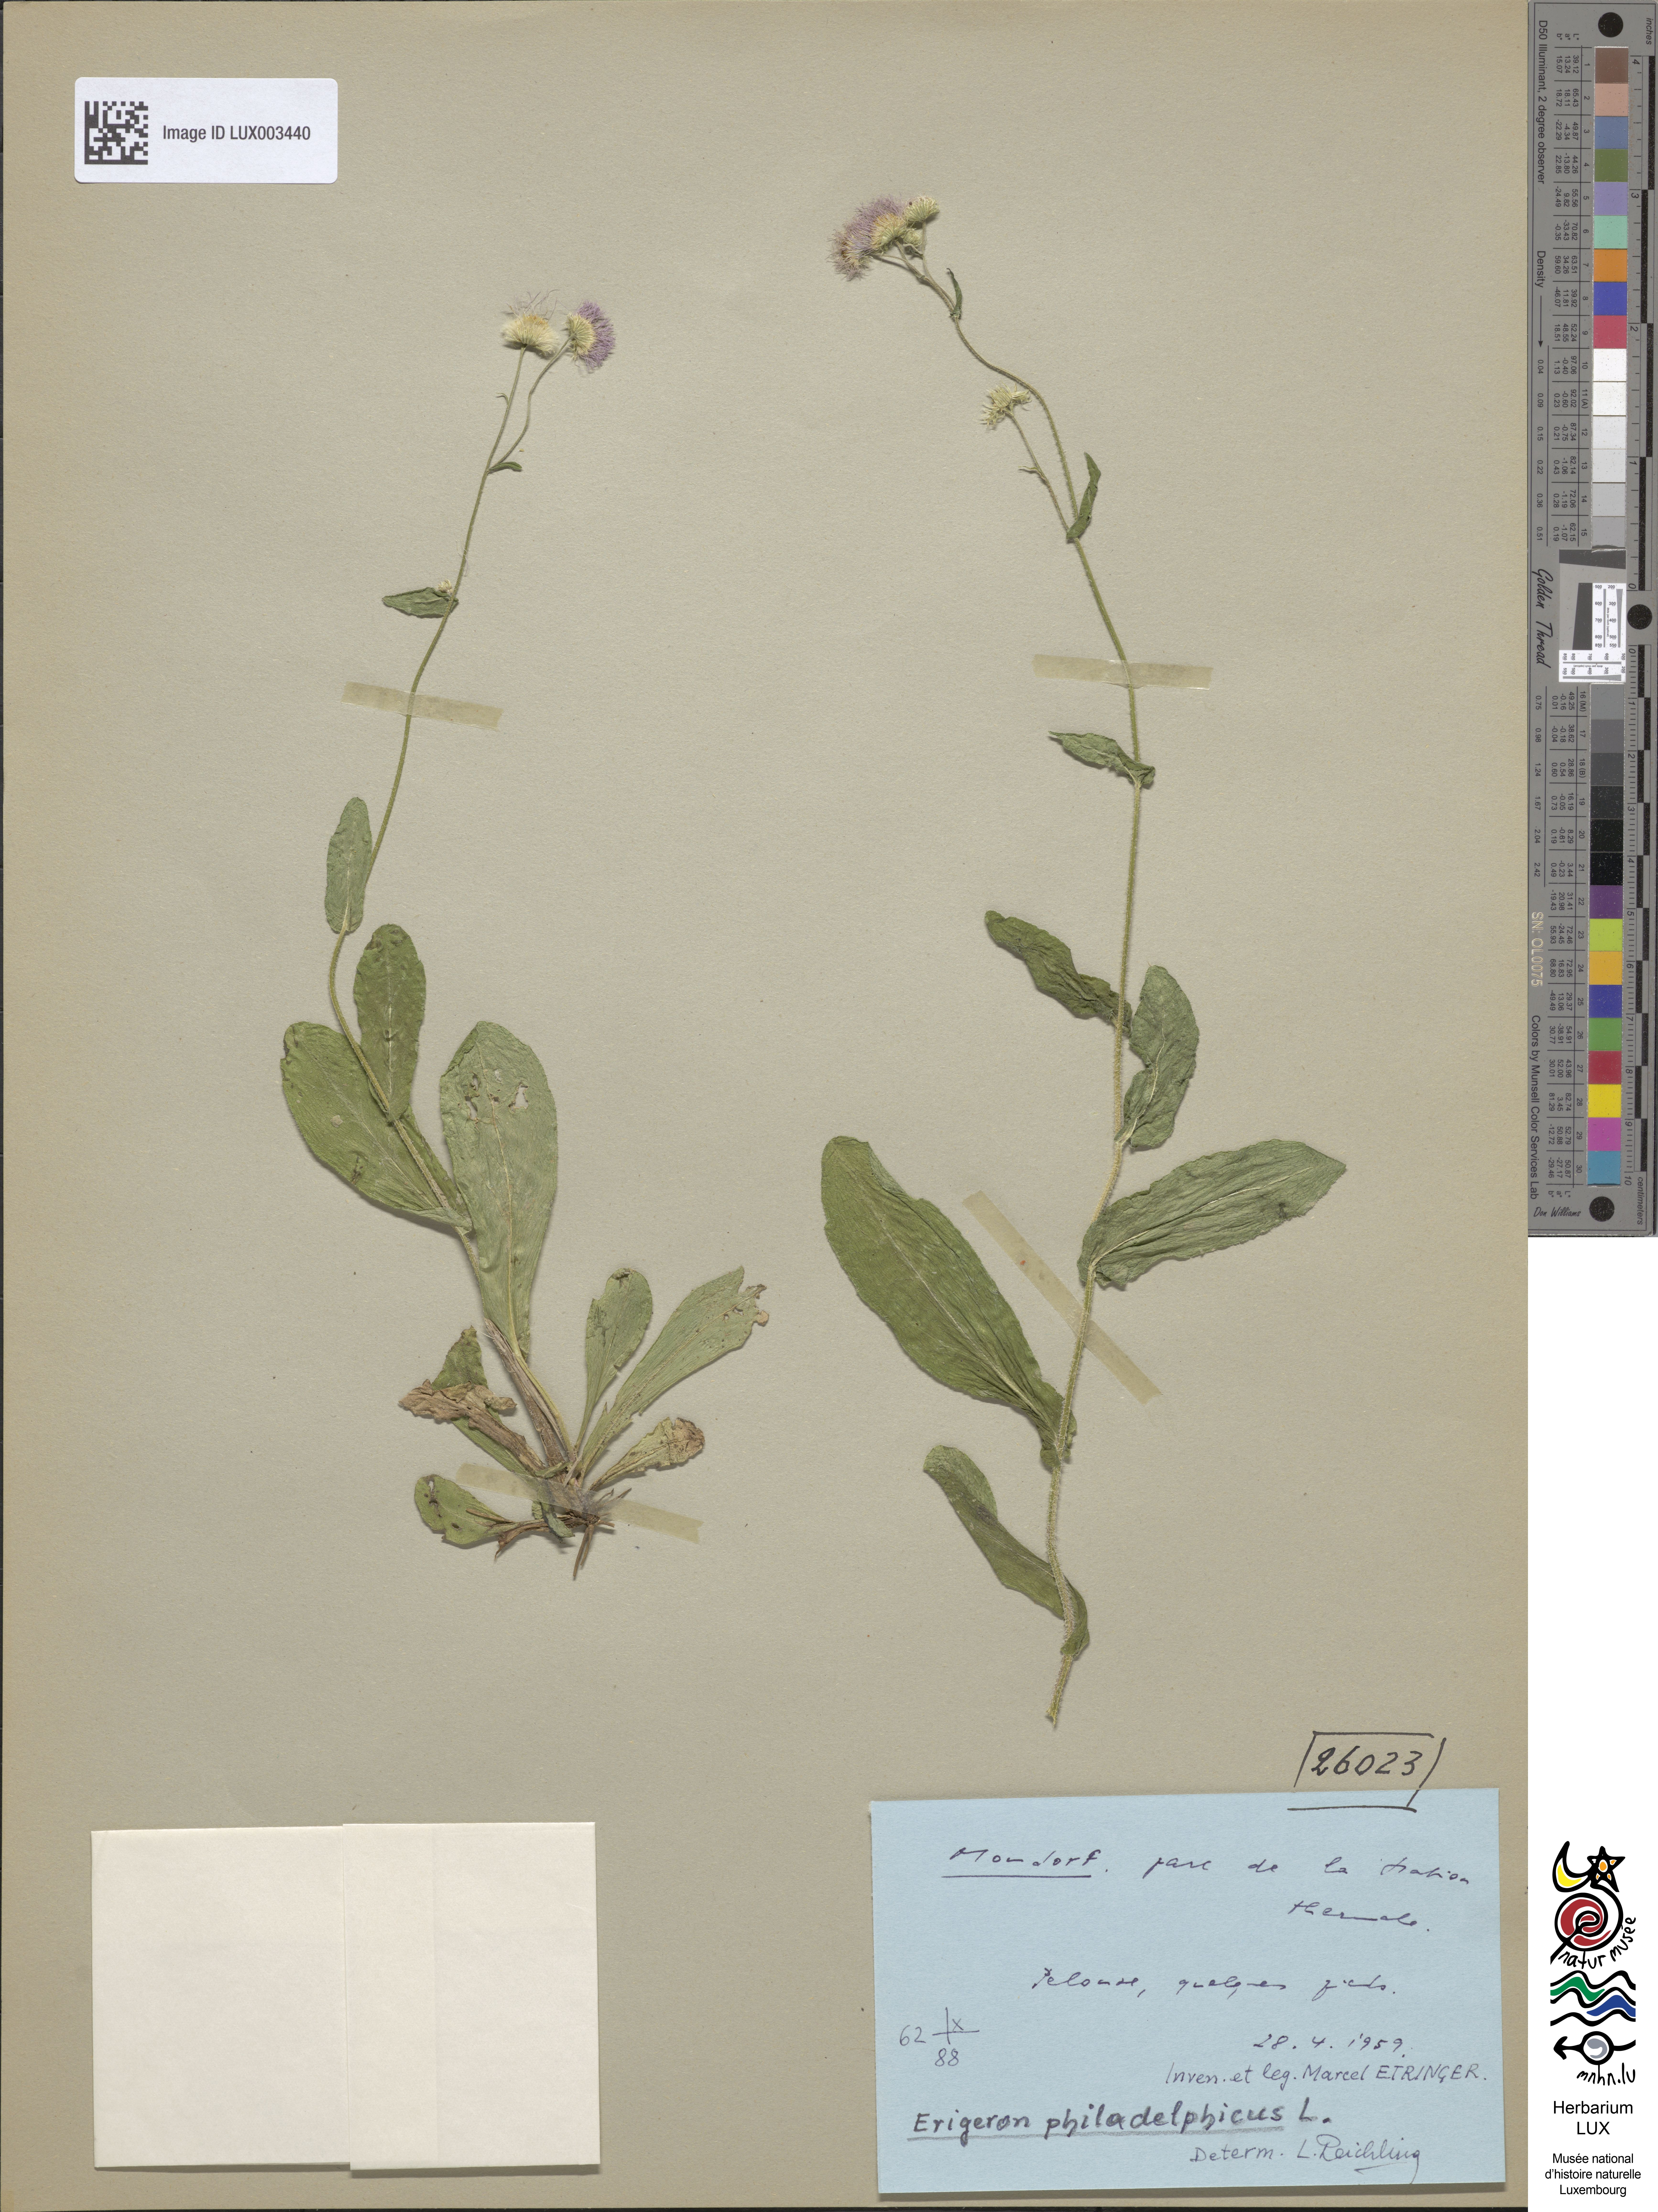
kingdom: Plantae
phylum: Tracheophyta
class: Magnoliopsida
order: Asterales
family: Asteraceae
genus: Erigeron
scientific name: Erigeron philadelphicus
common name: Robin's-plantain
